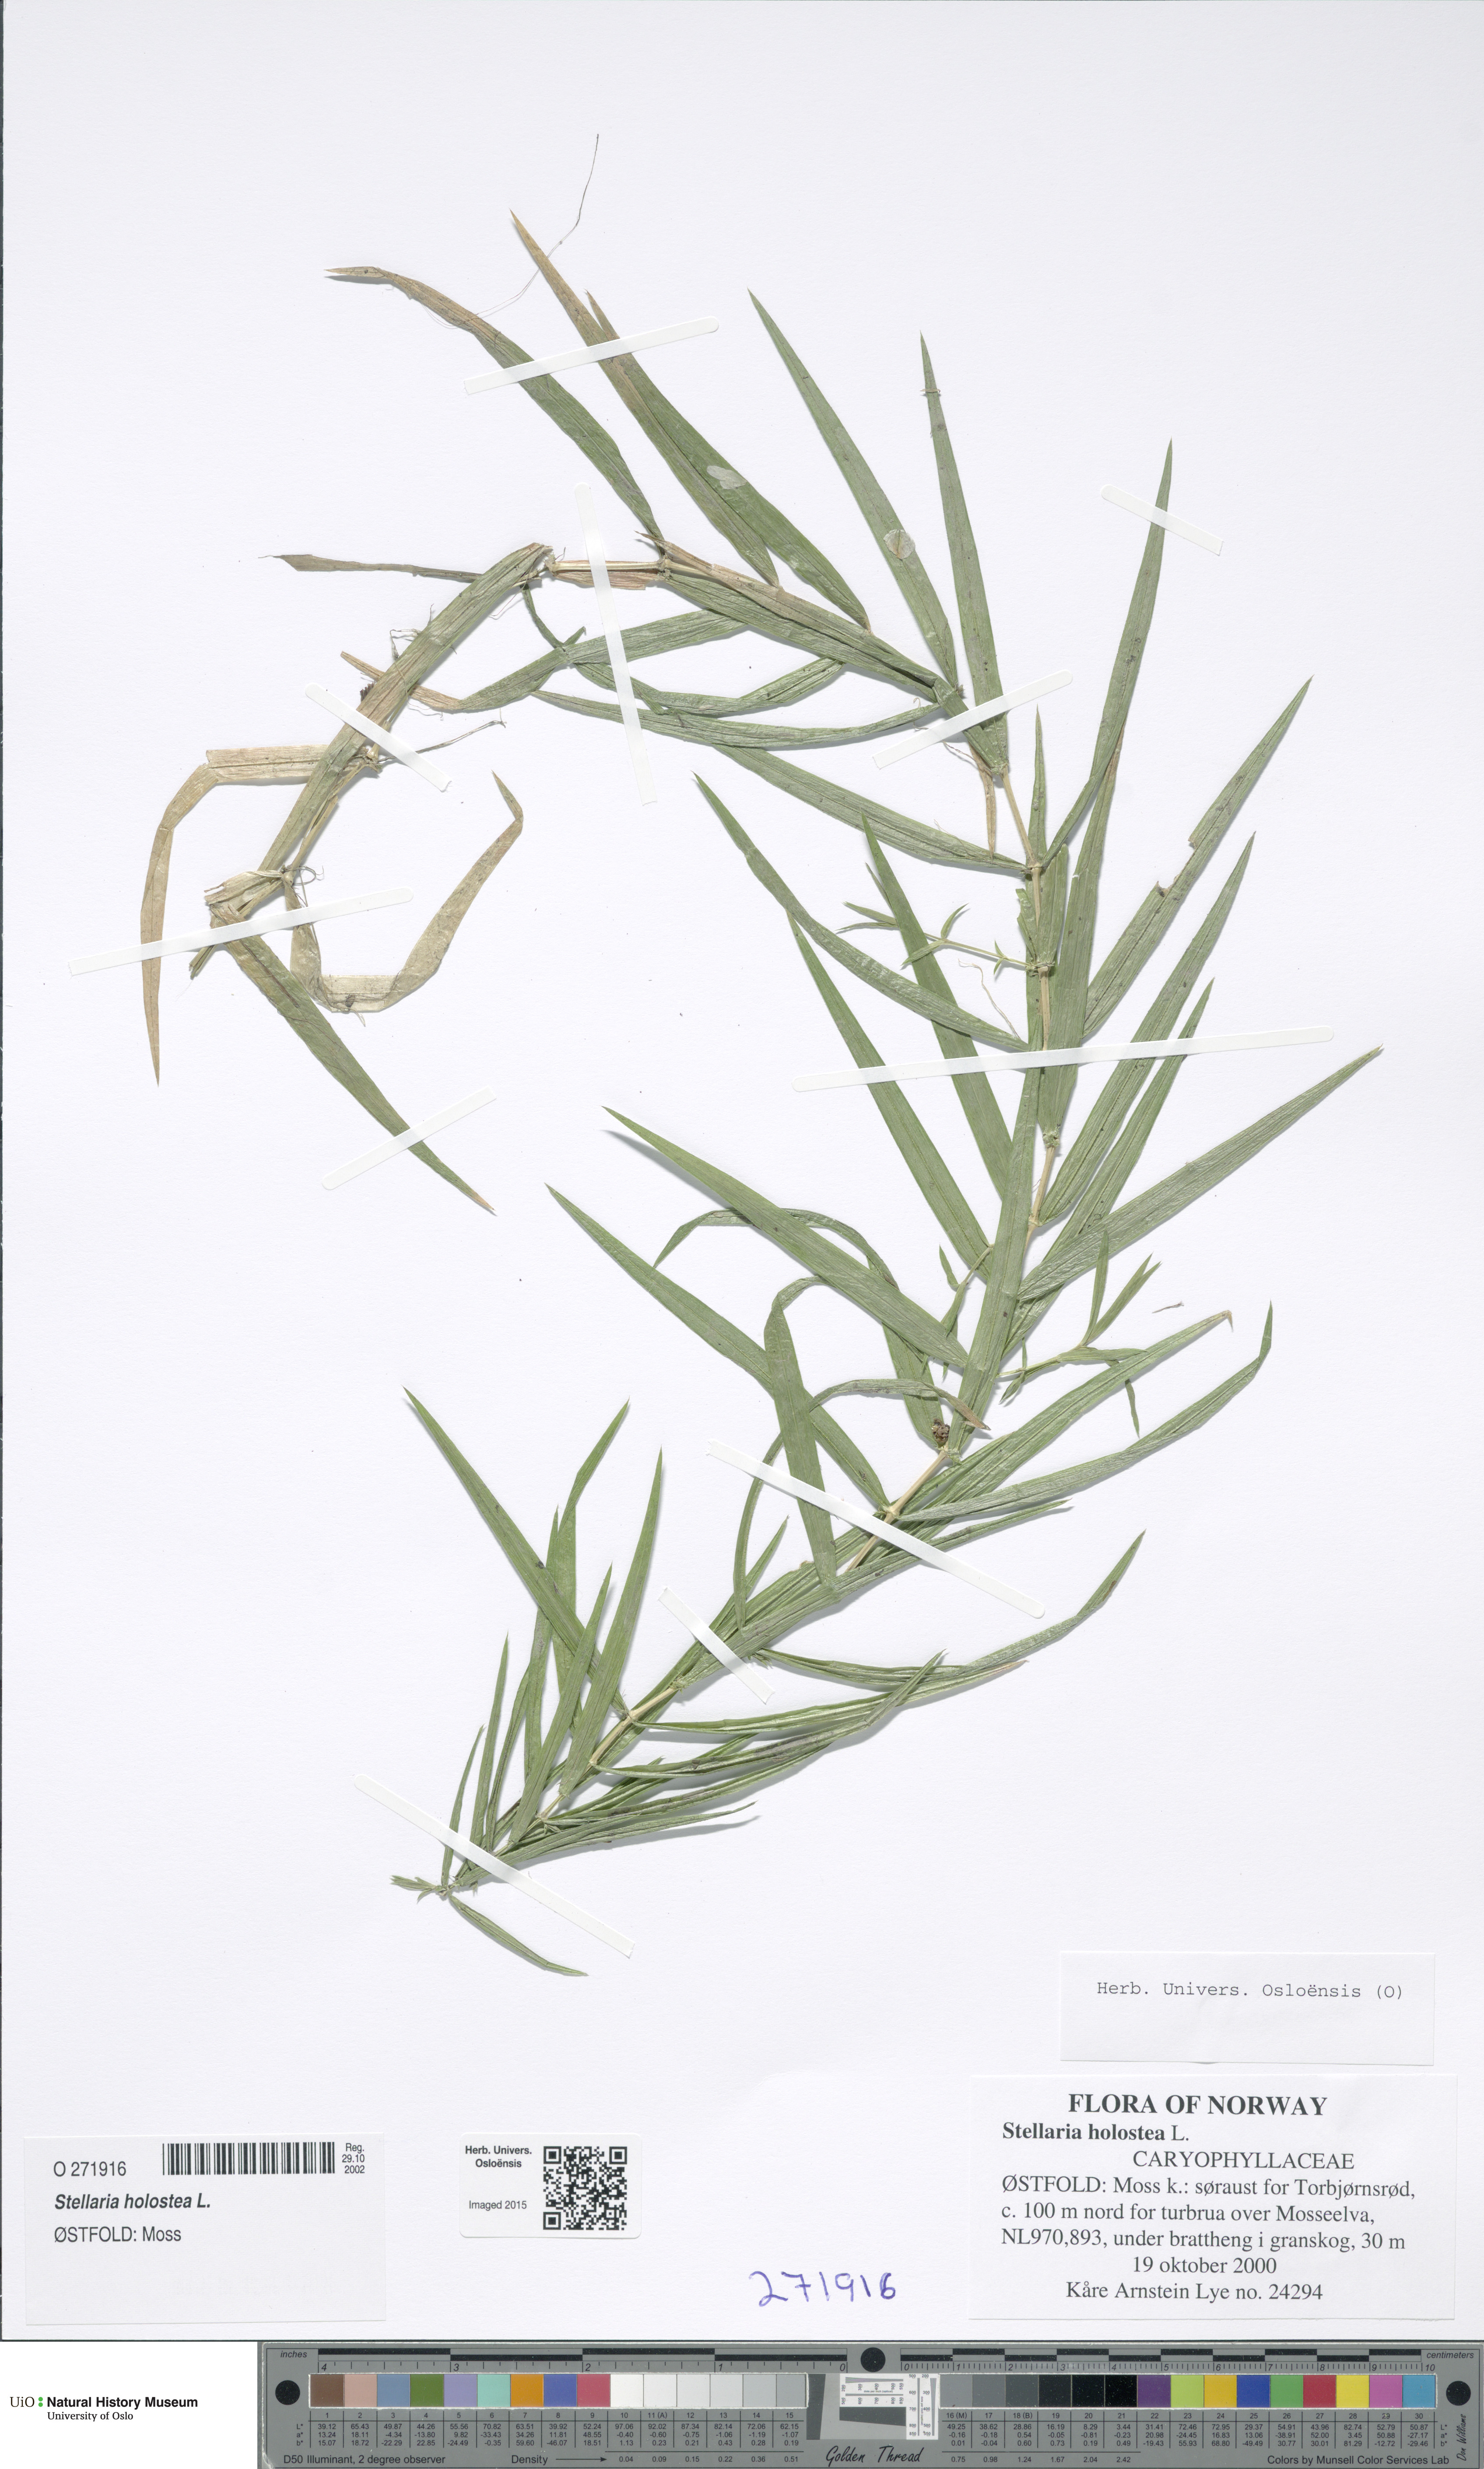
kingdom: Plantae
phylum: Tracheophyta
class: Magnoliopsida
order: Caryophyllales
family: Caryophyllaceae
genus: Rabelera
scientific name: Rabelera holostea
